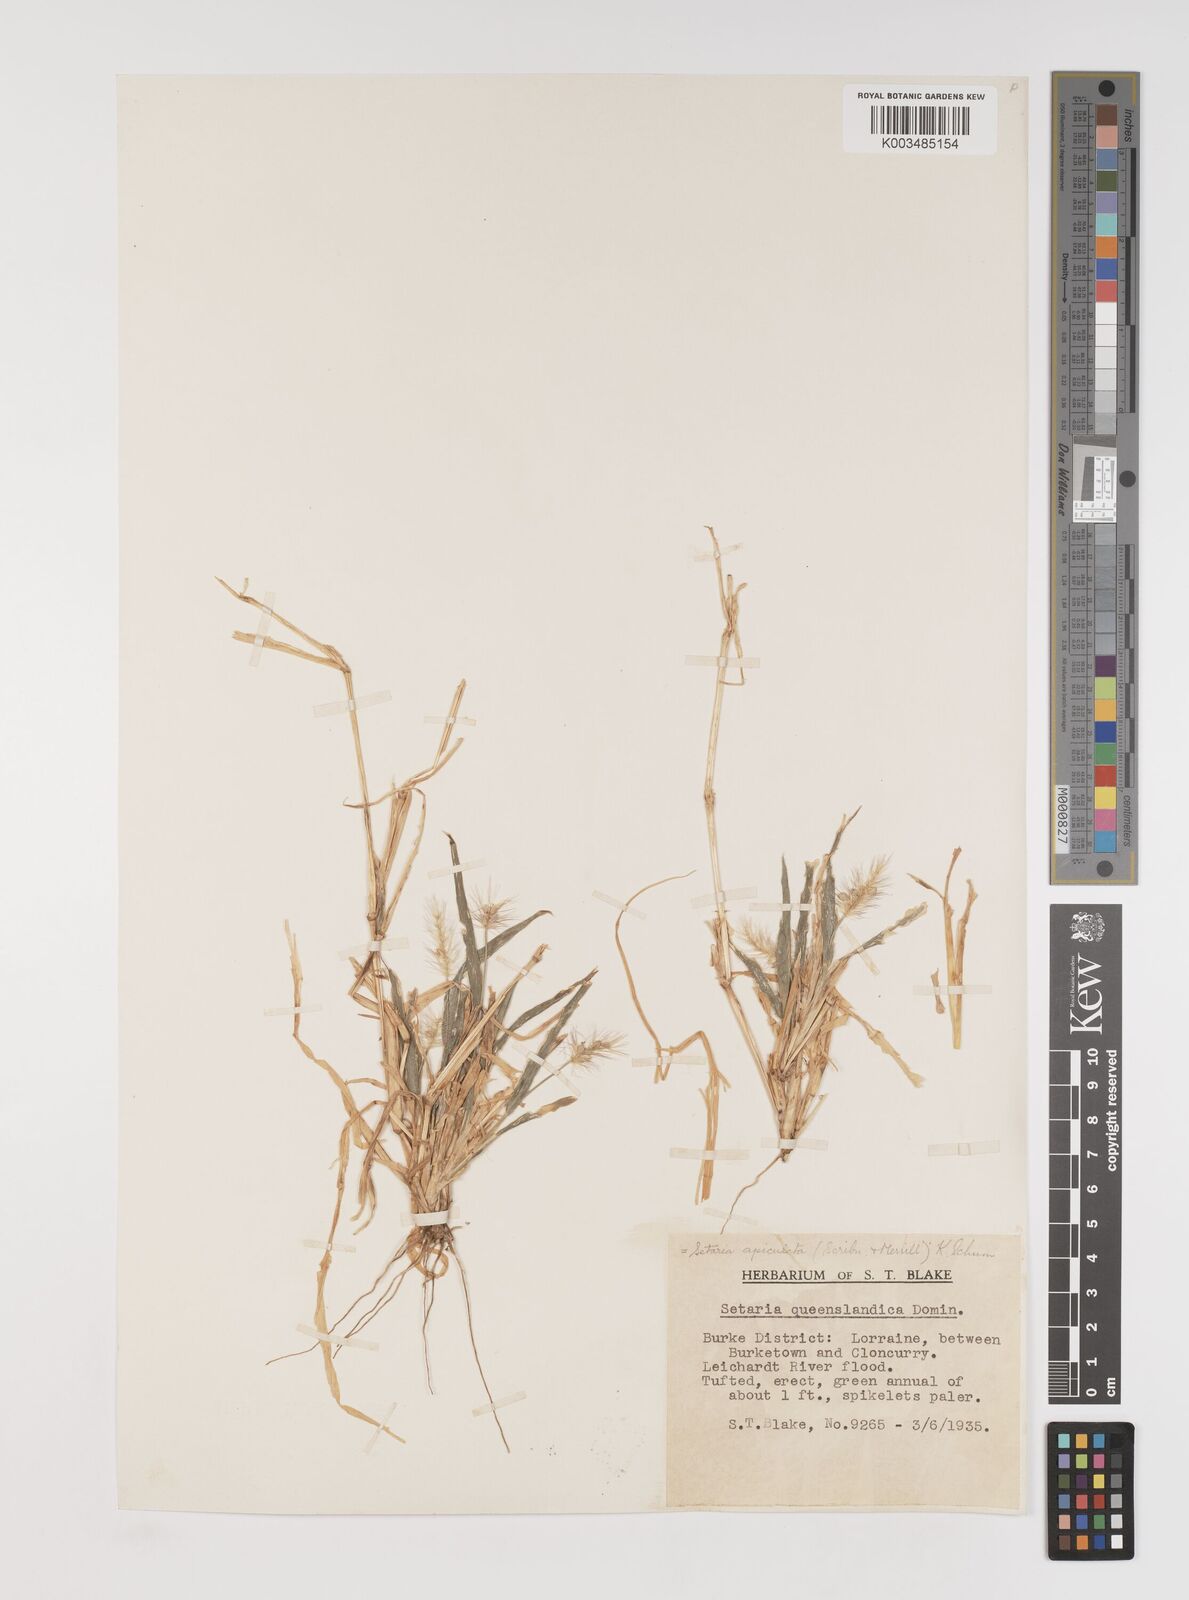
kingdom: Plantae
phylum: Tracheophyta
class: Liliopsida
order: Poales
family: Poaceae
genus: Setaria
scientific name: Setaria apiculata
